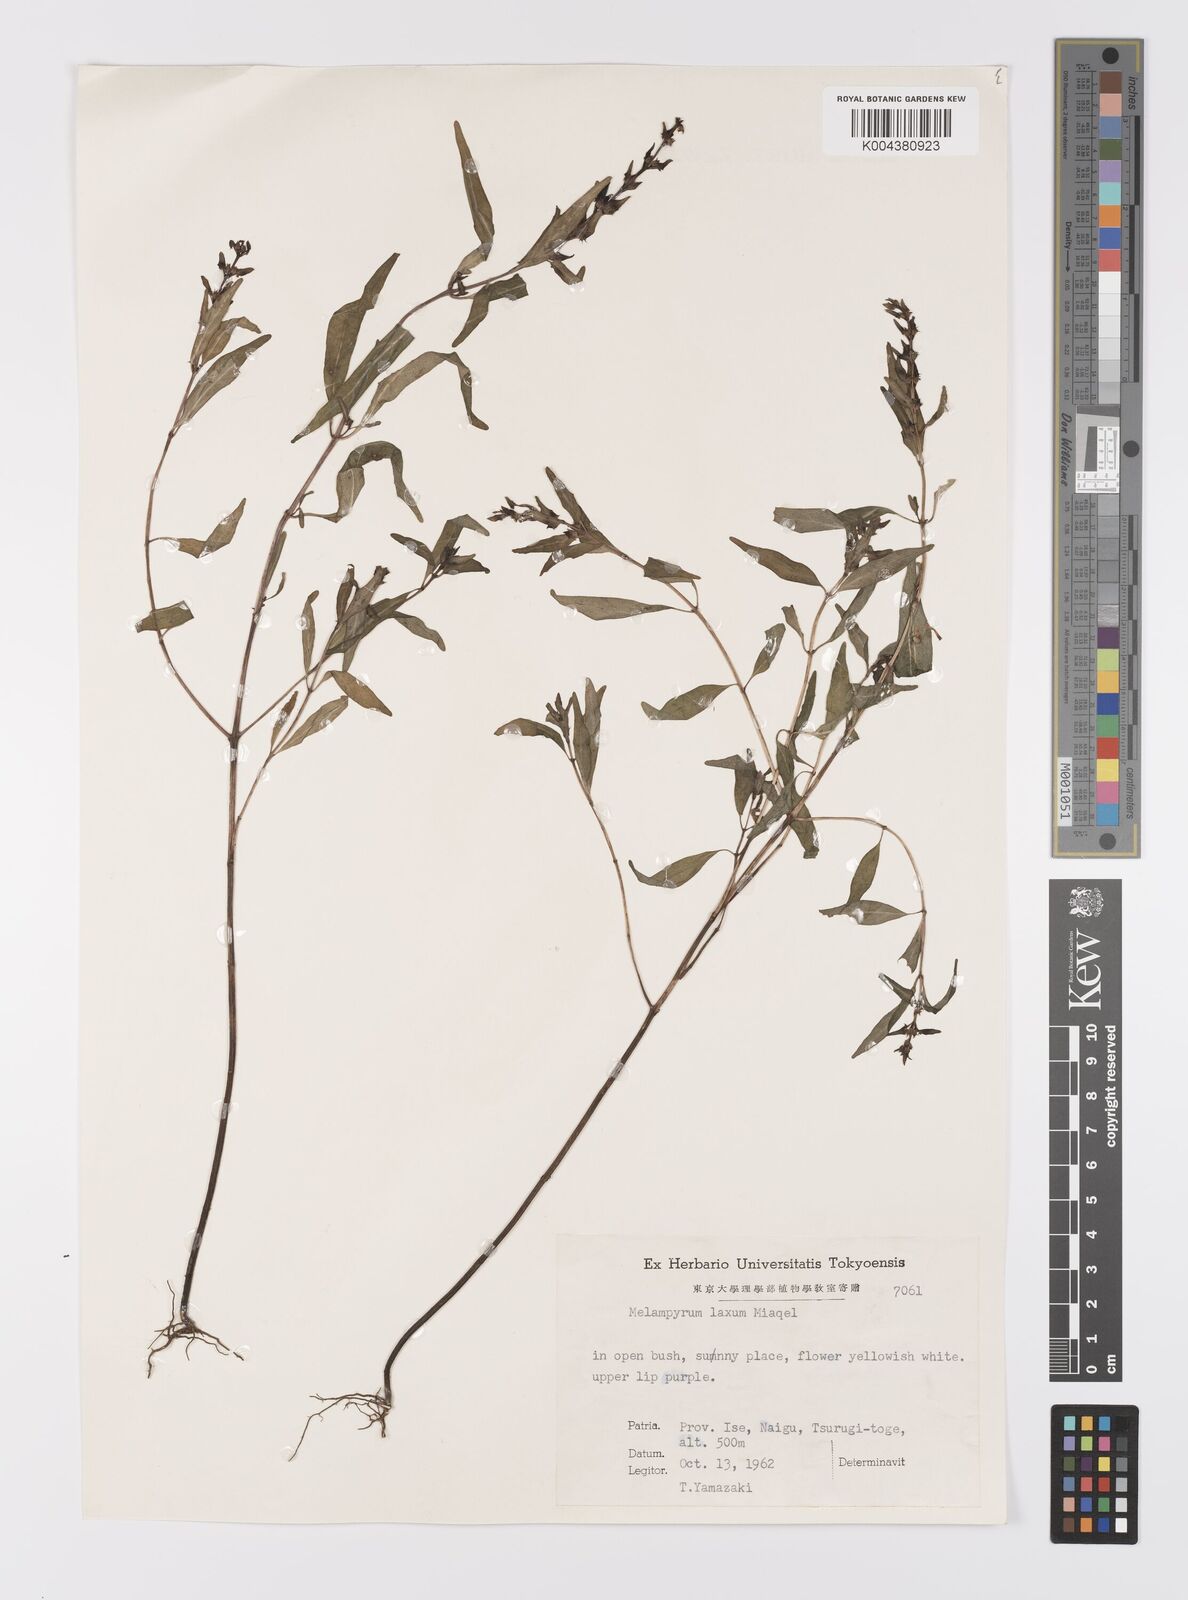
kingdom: Plantae
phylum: Tracheophyta
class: Magnoliopsida
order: Lamiales
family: Orobanchaceae
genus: Melampyrum
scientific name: Melampyrum laxum
